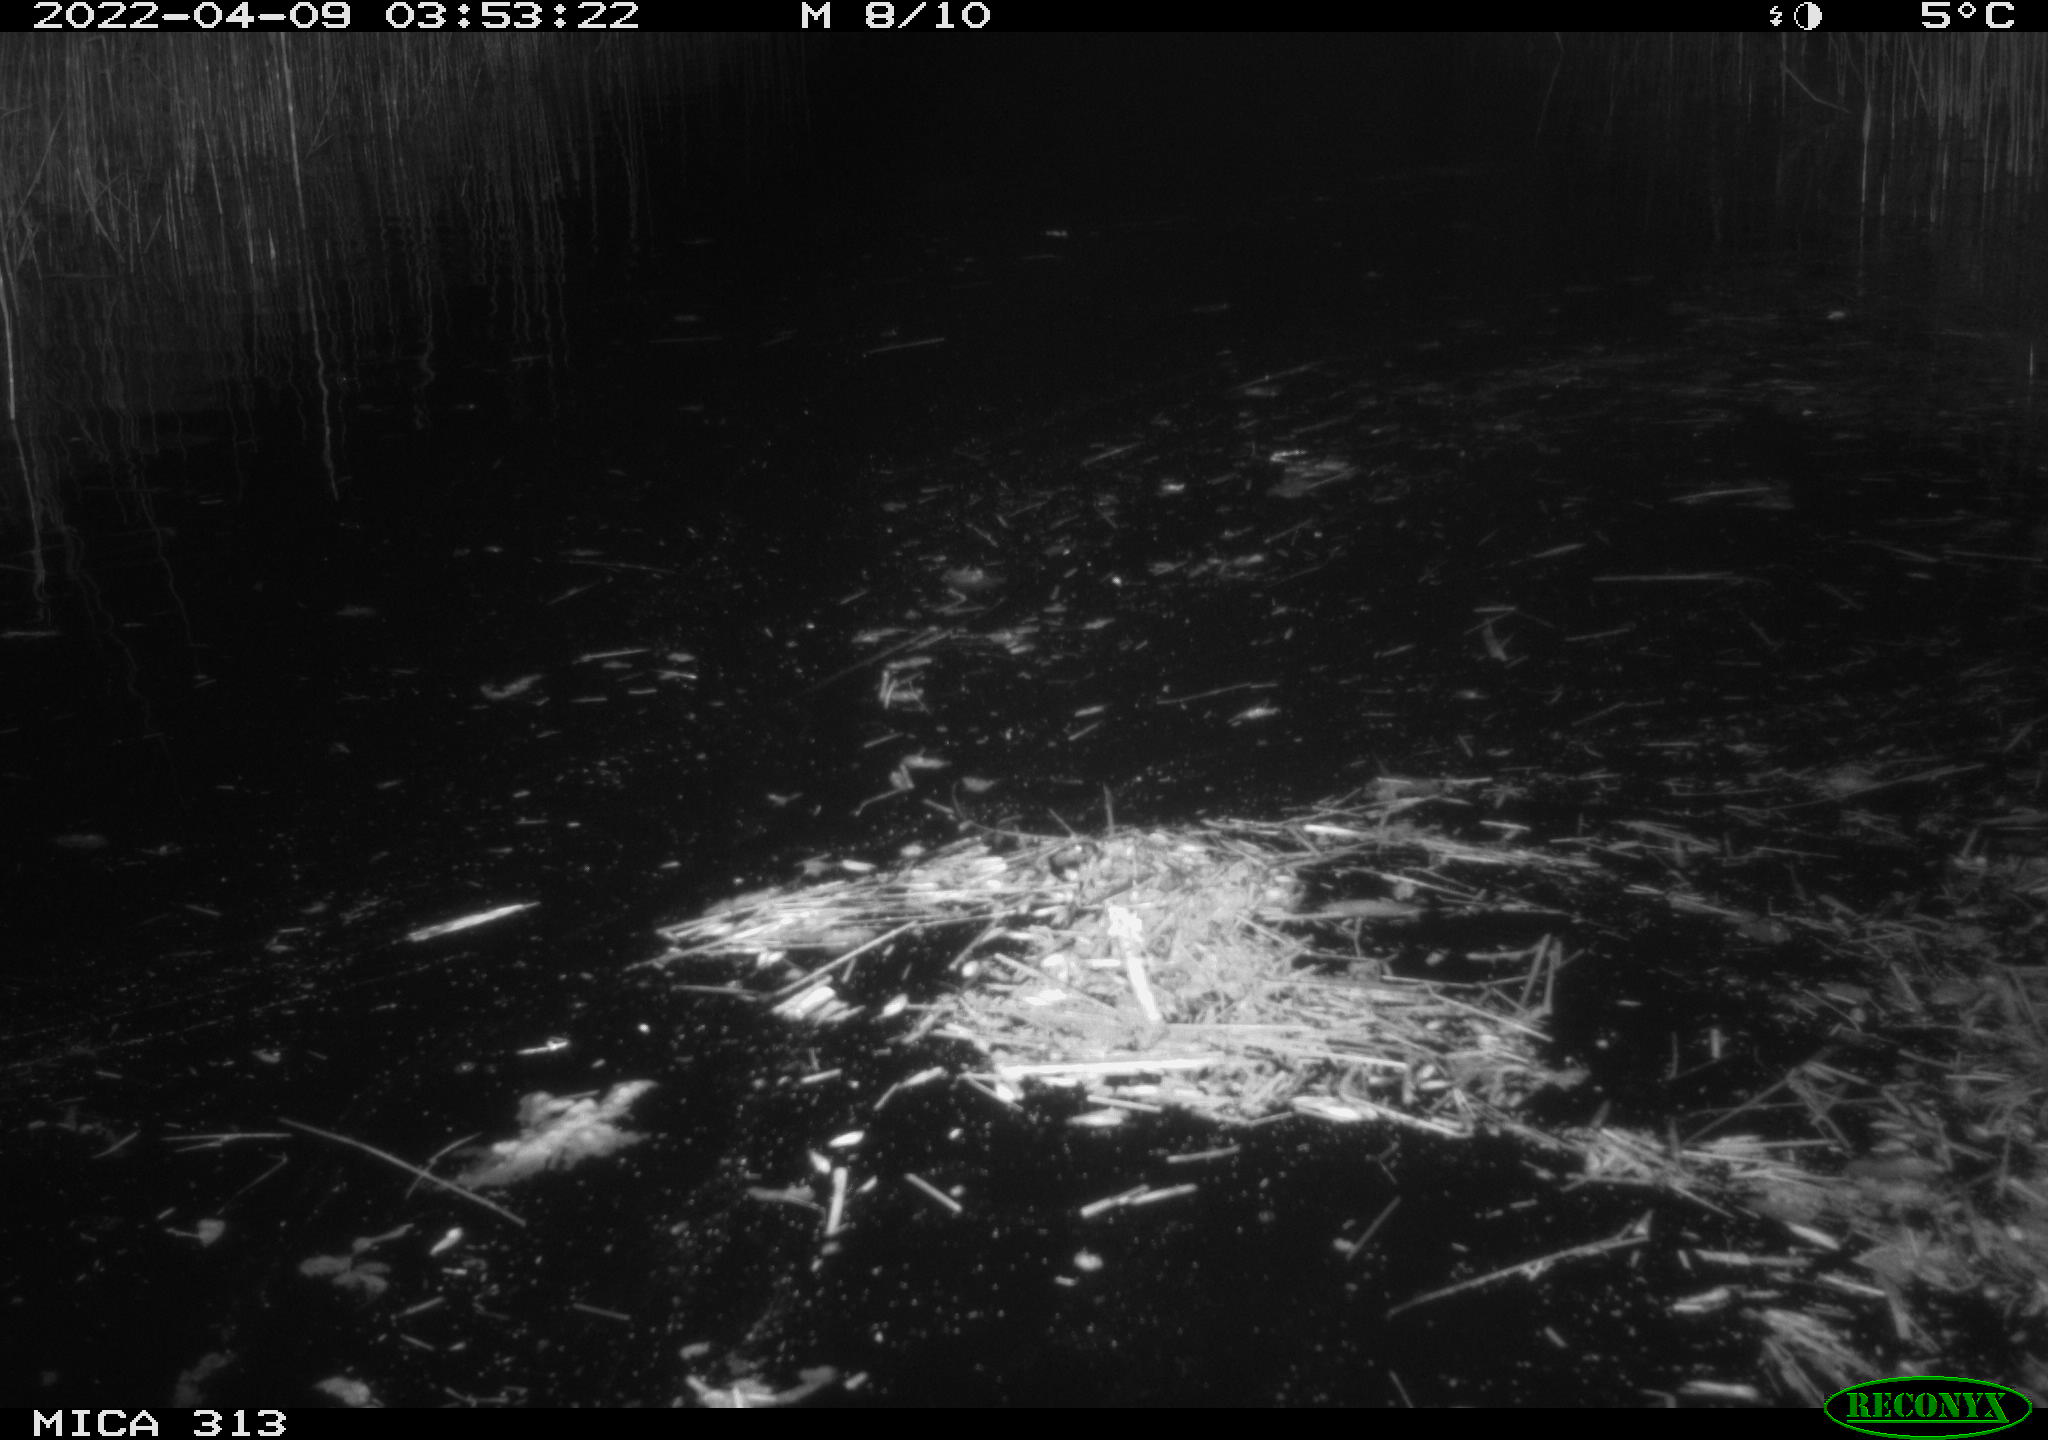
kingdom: Animalia
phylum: Chordata
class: Mammalia
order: Rodentia
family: Cricetidae
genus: Ondatra
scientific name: Ondatra zibethicus
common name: Muskrat
